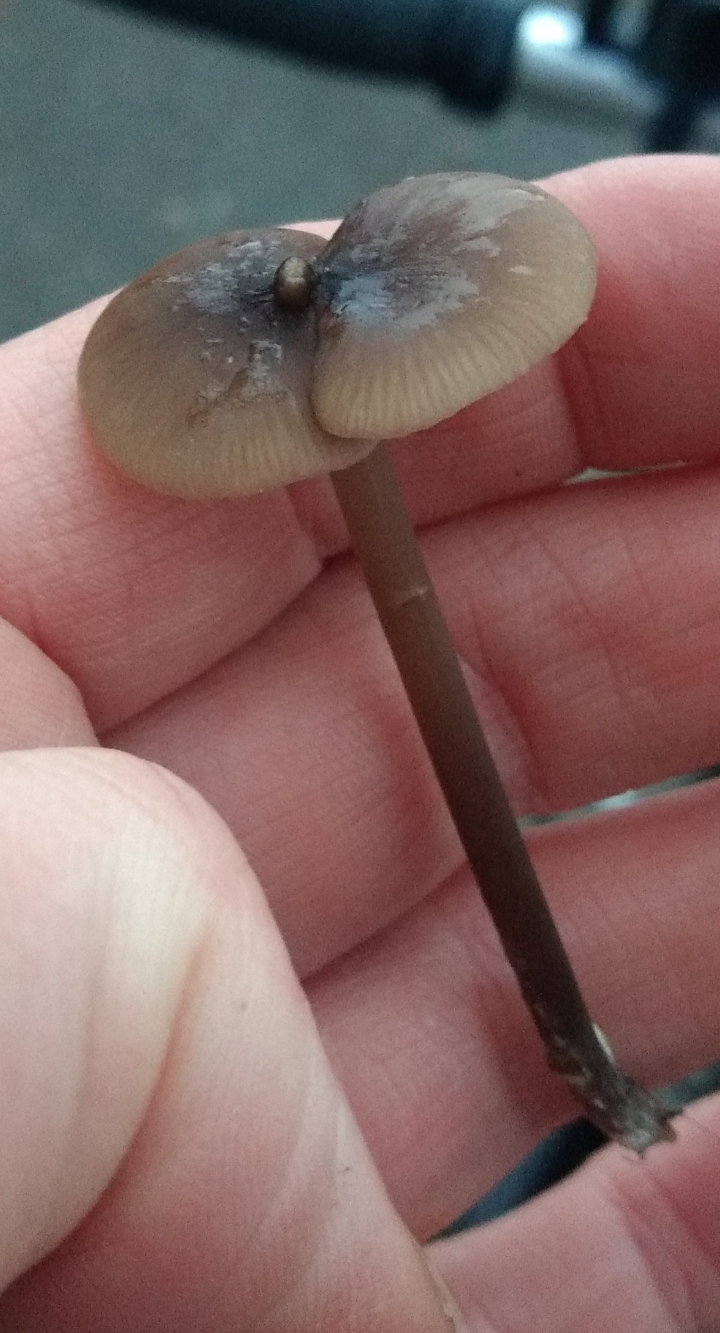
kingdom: Fungi
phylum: Basidiomycota
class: Agaricomycetes
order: Agaricales
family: Entolomataceae
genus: Entoloma
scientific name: Entoloma
